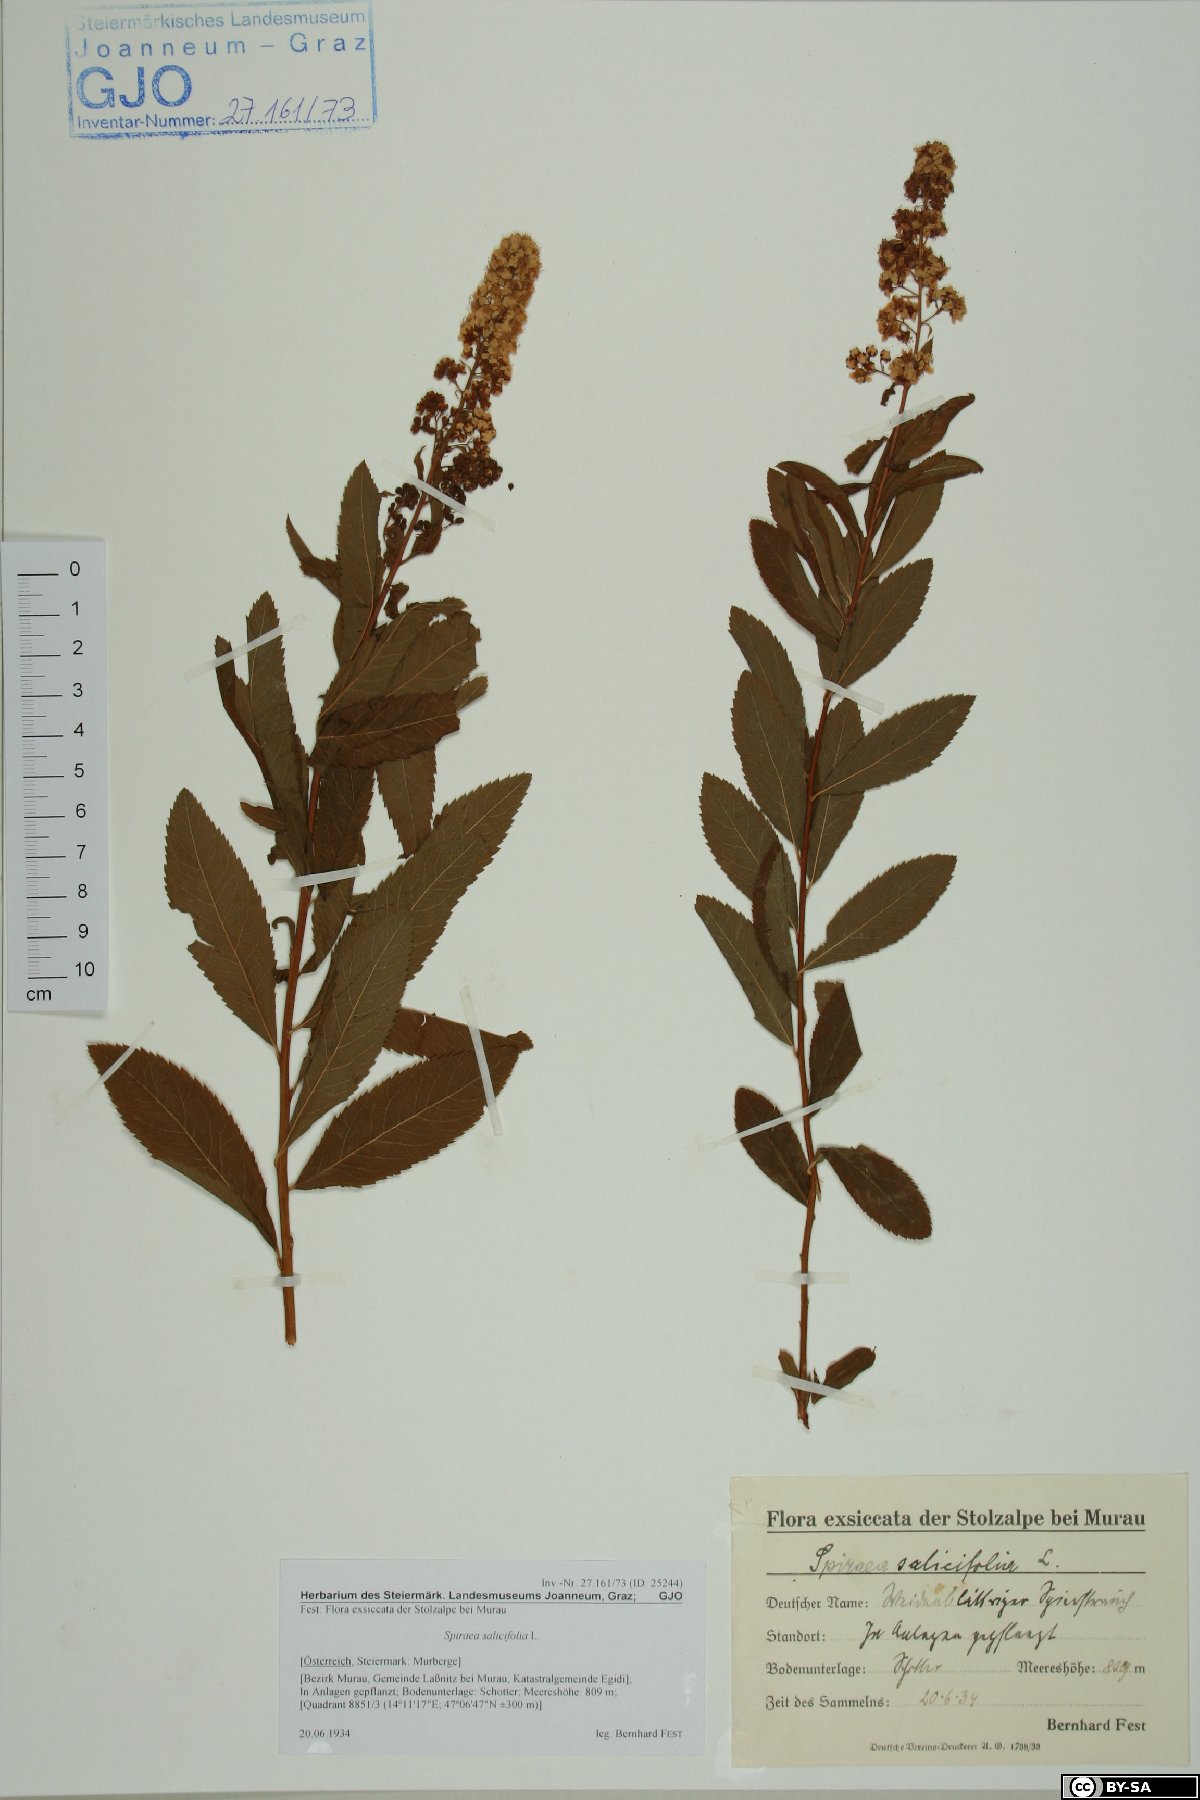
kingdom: Plantae
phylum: Tracheophyta
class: Magnoliopsida
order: Rosales
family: Rosaceae
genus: Spiraea
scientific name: Spiraea salicifolia
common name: Bridewort
